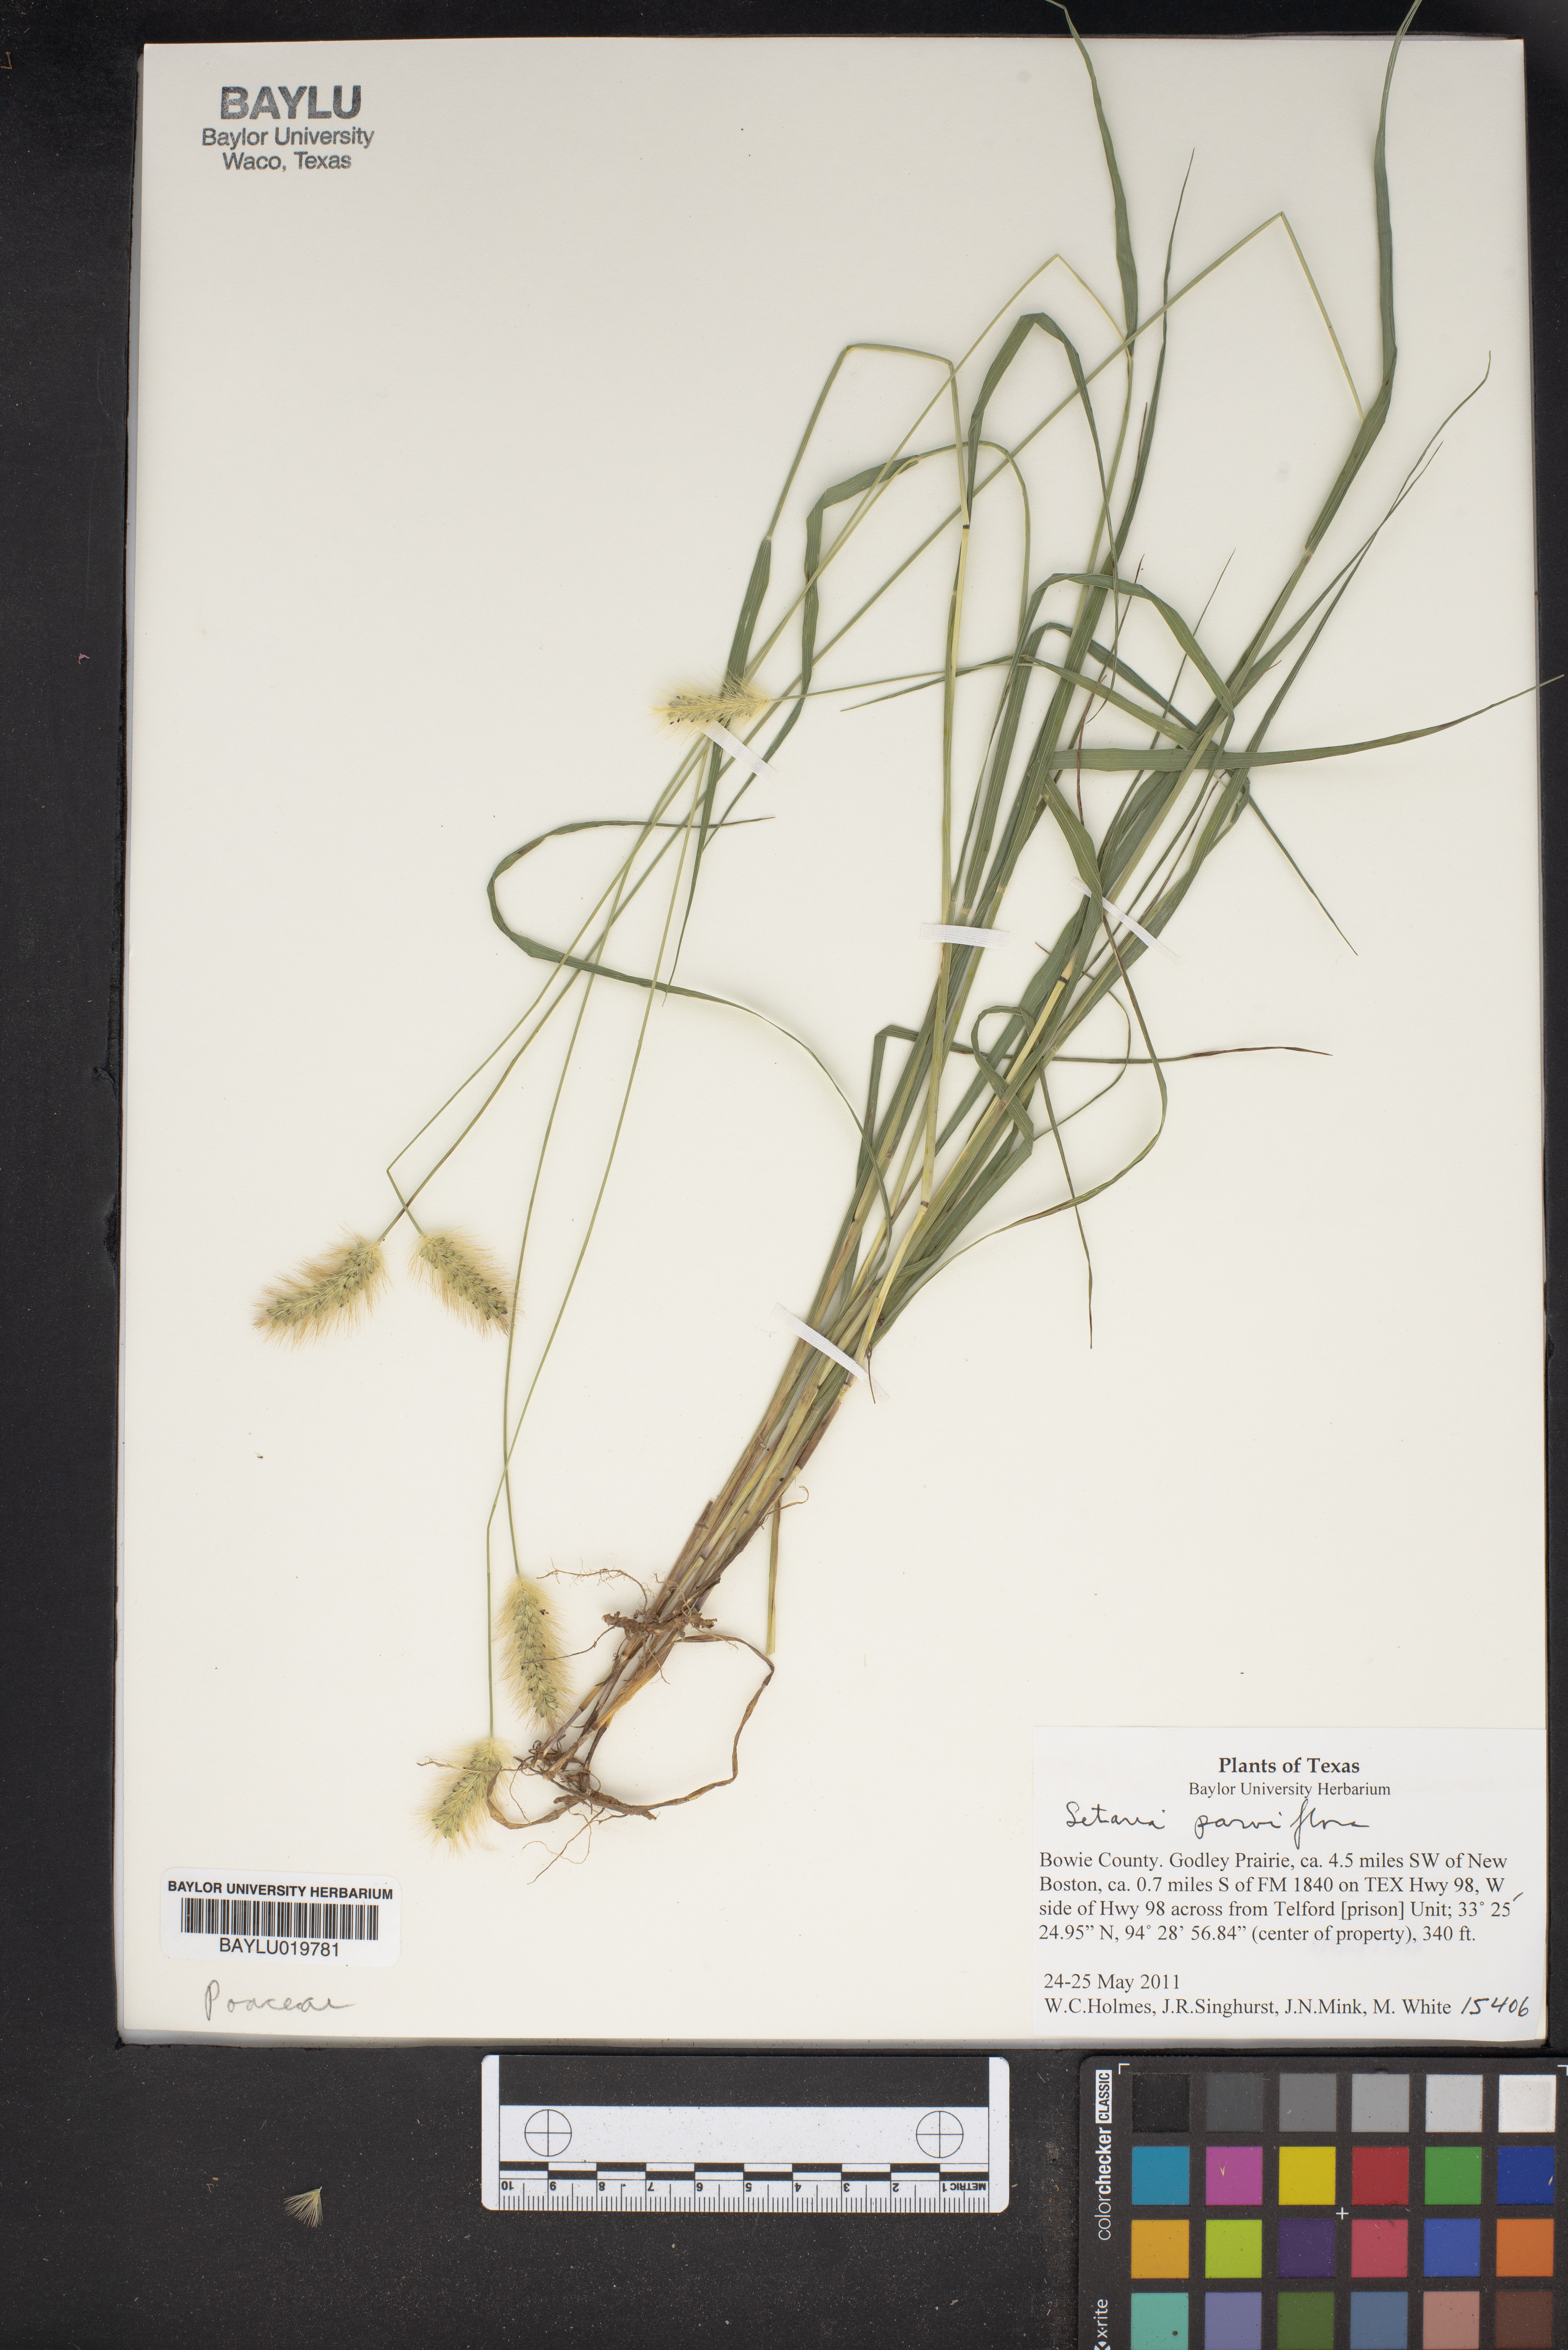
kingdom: Plantae
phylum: Tracheophyta
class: Liliopsida
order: Poales
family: Poaceae
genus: Setaria
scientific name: Setaria parviflora
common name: Knotroot bristle-grass
